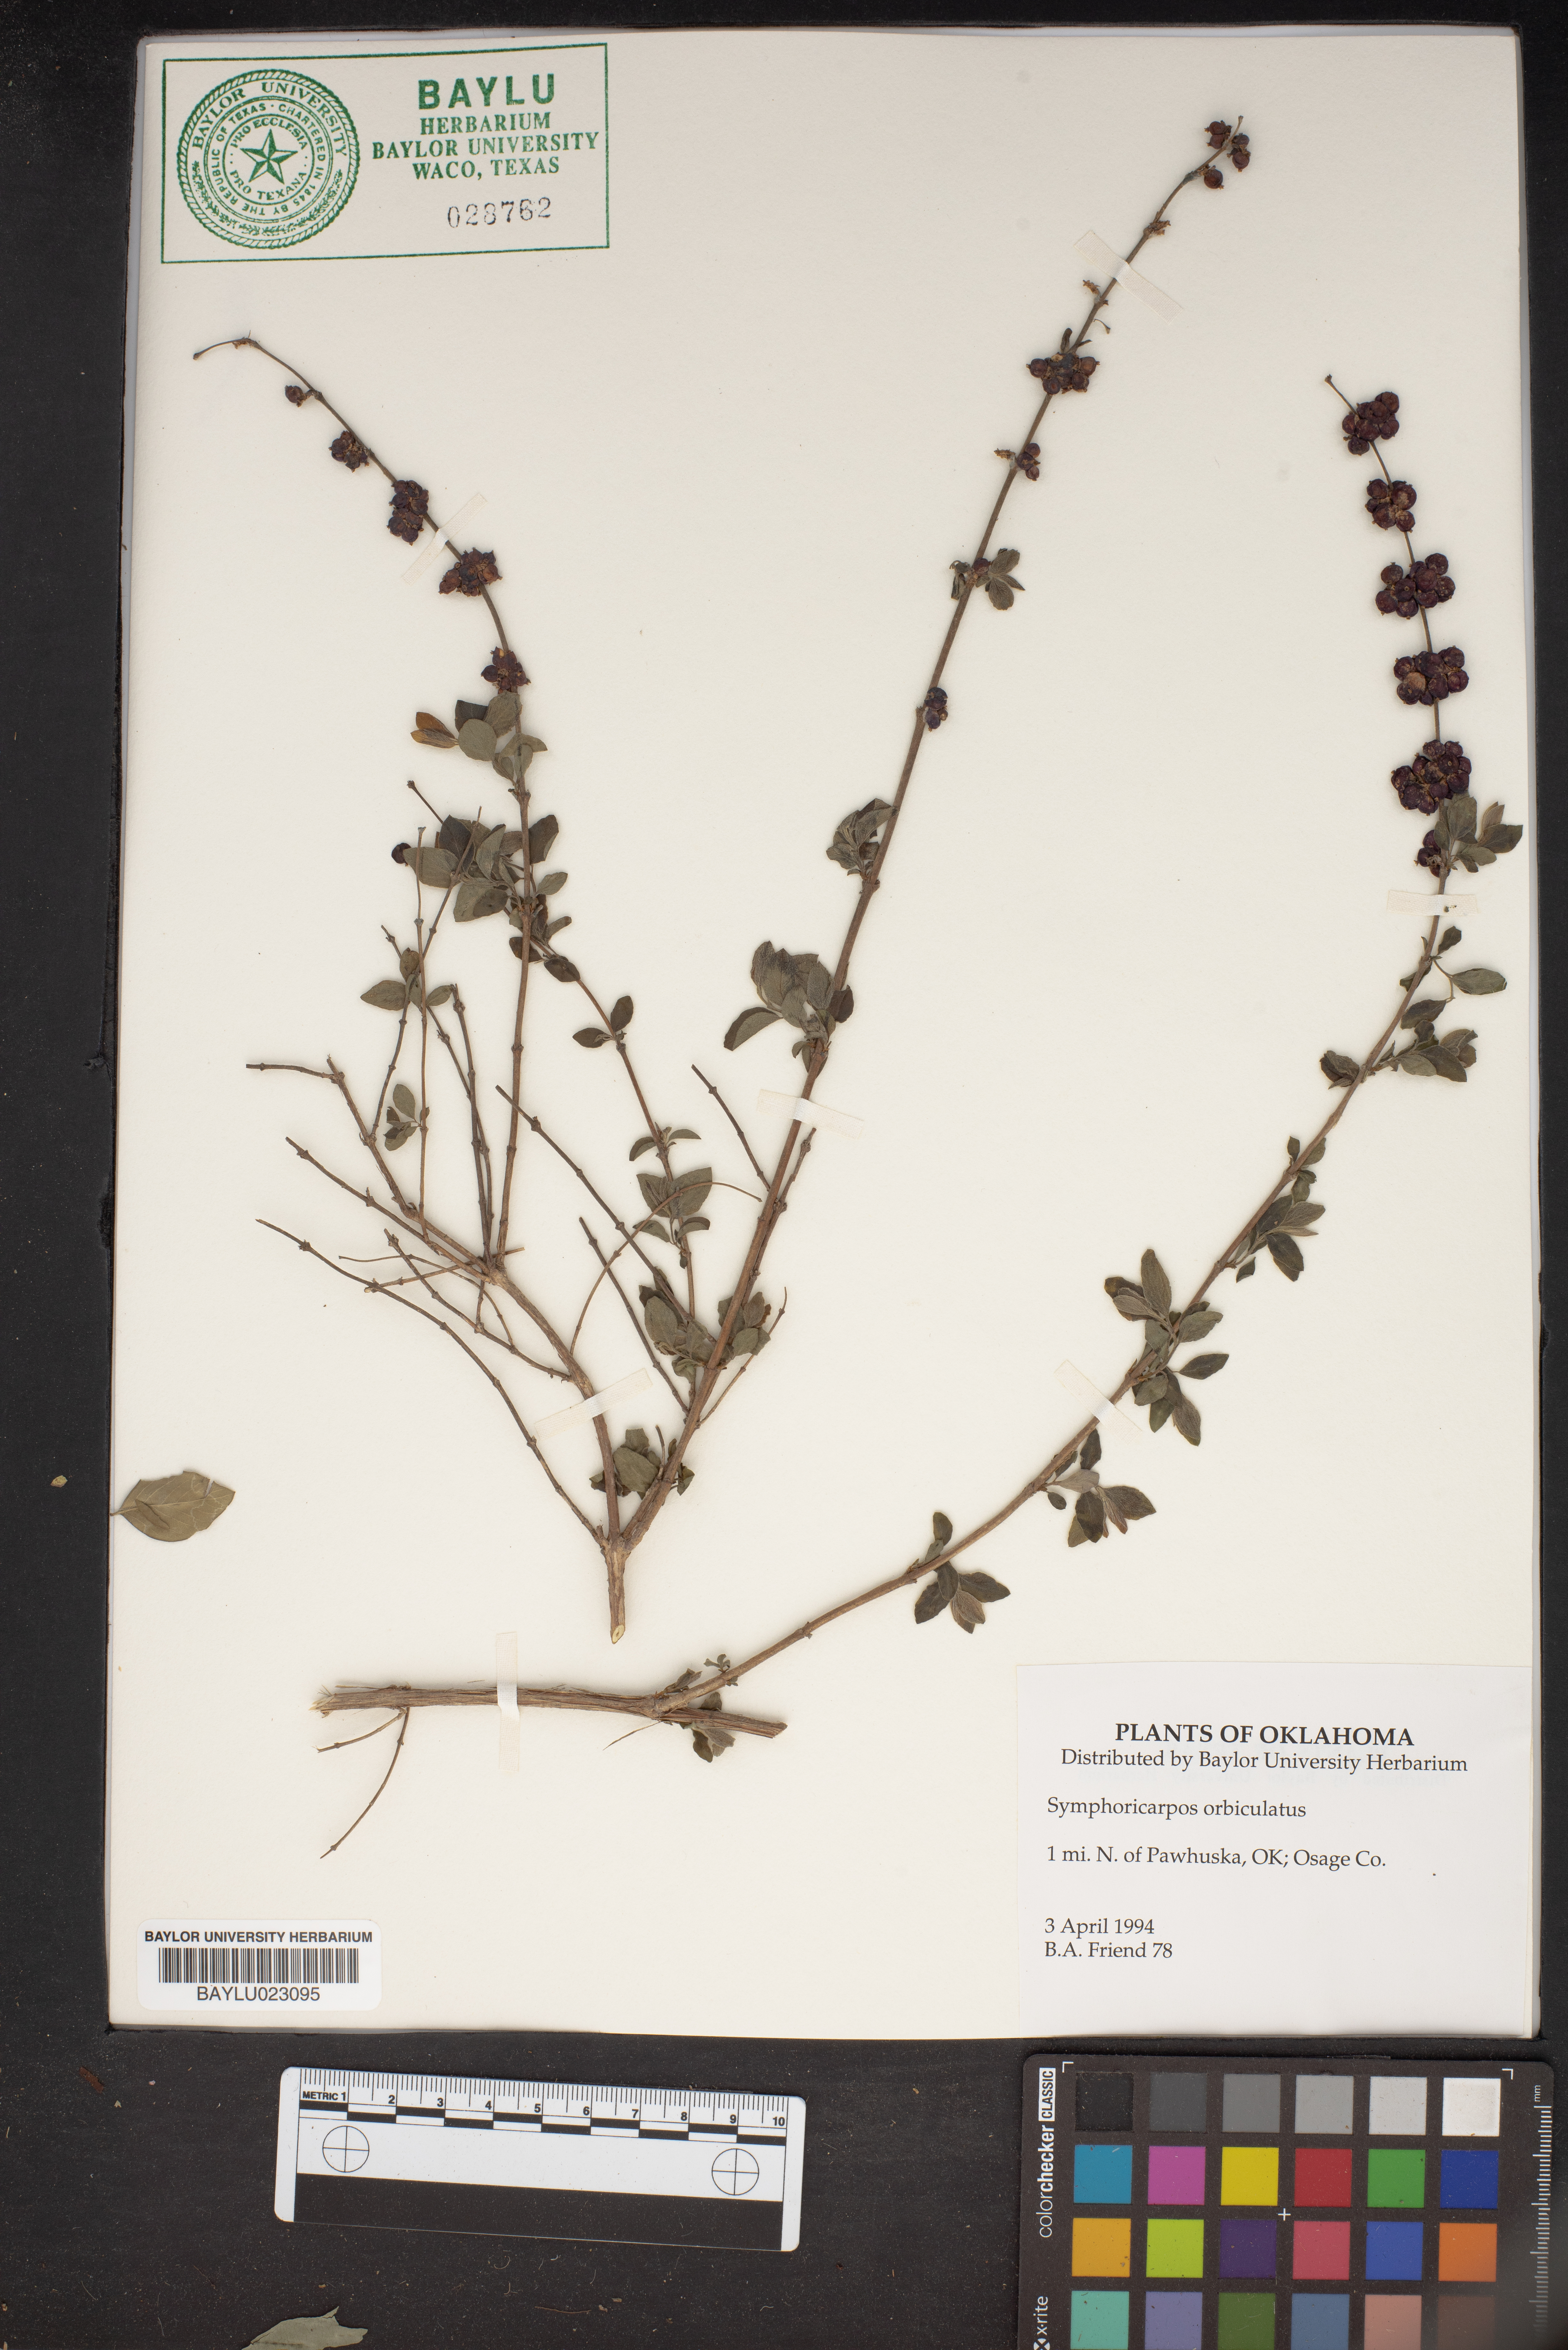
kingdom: Plantae
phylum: Tracheophyta
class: Magnoliopsida
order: Dipsacales
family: Caprifoliaceae
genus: Symphoricarpos
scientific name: Symphoricarpos orbiculatus
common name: Coralberry
